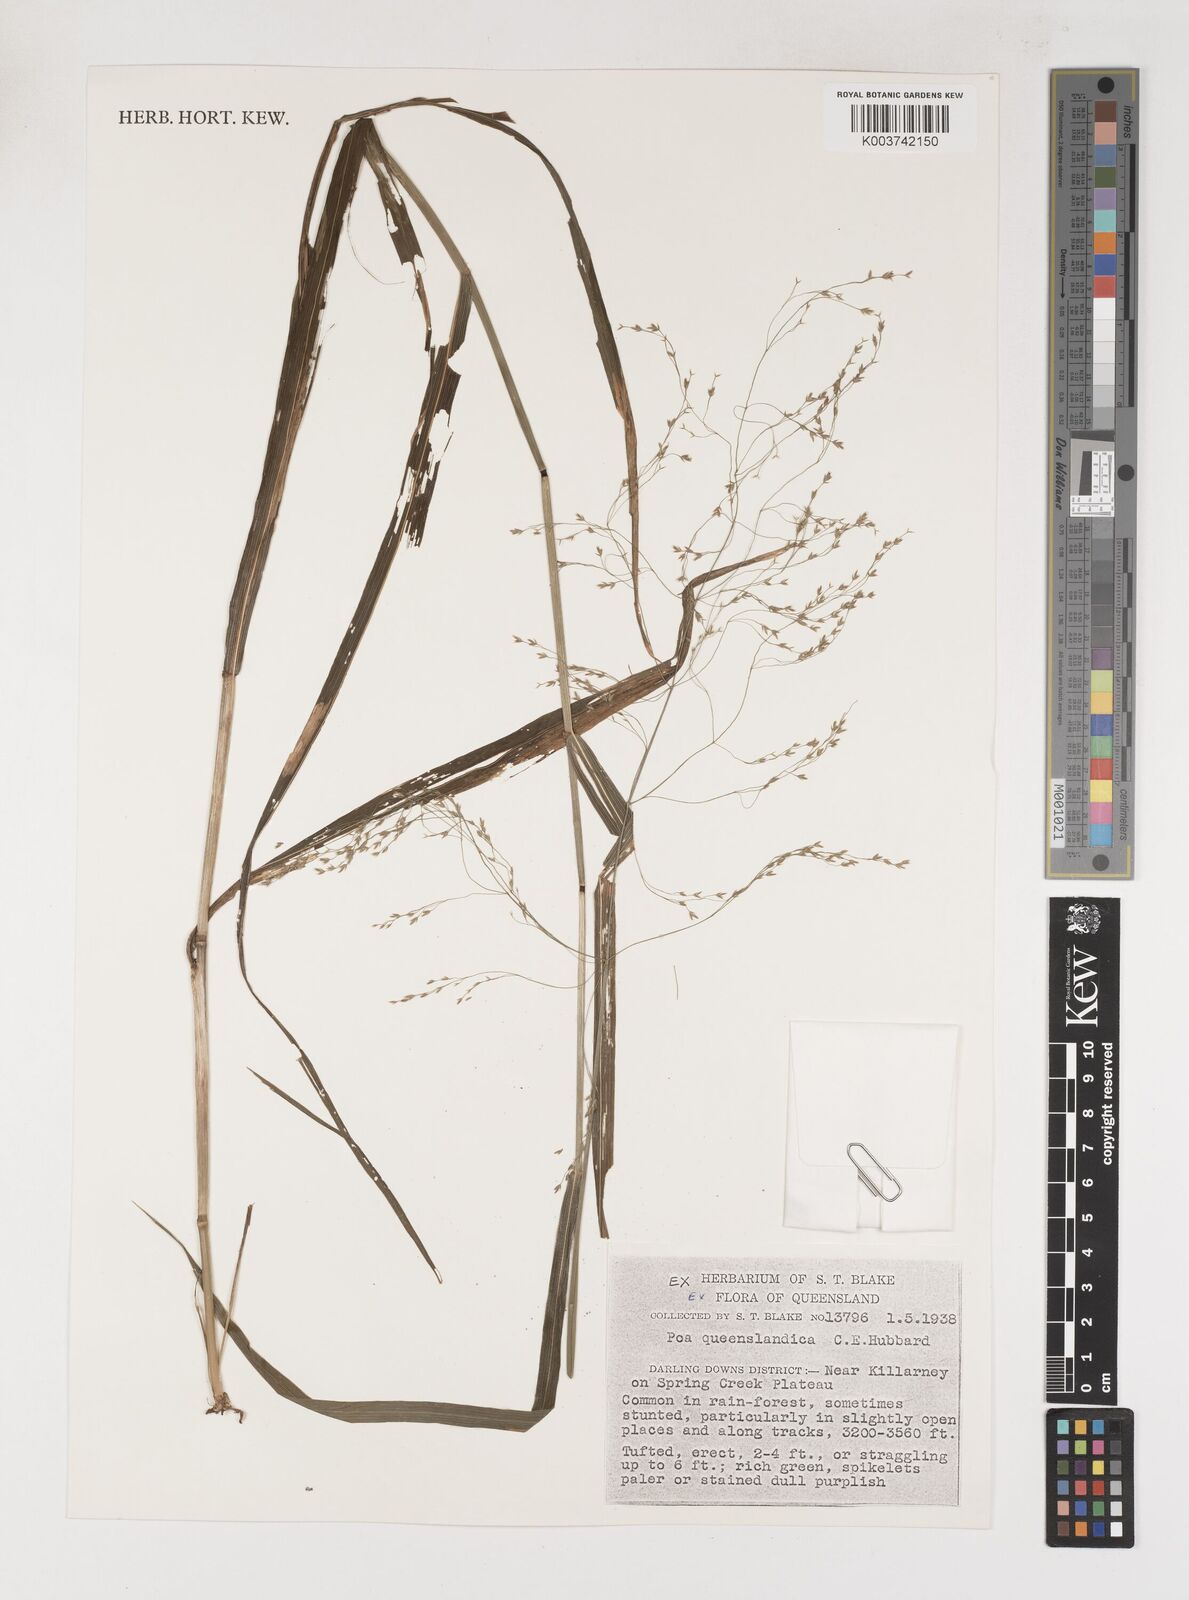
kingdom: Plantae
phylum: Tracheophyta
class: Liliopsida
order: Poales
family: Poaceae
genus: Sylvipoa
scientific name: Sylvipoa queenslandica
